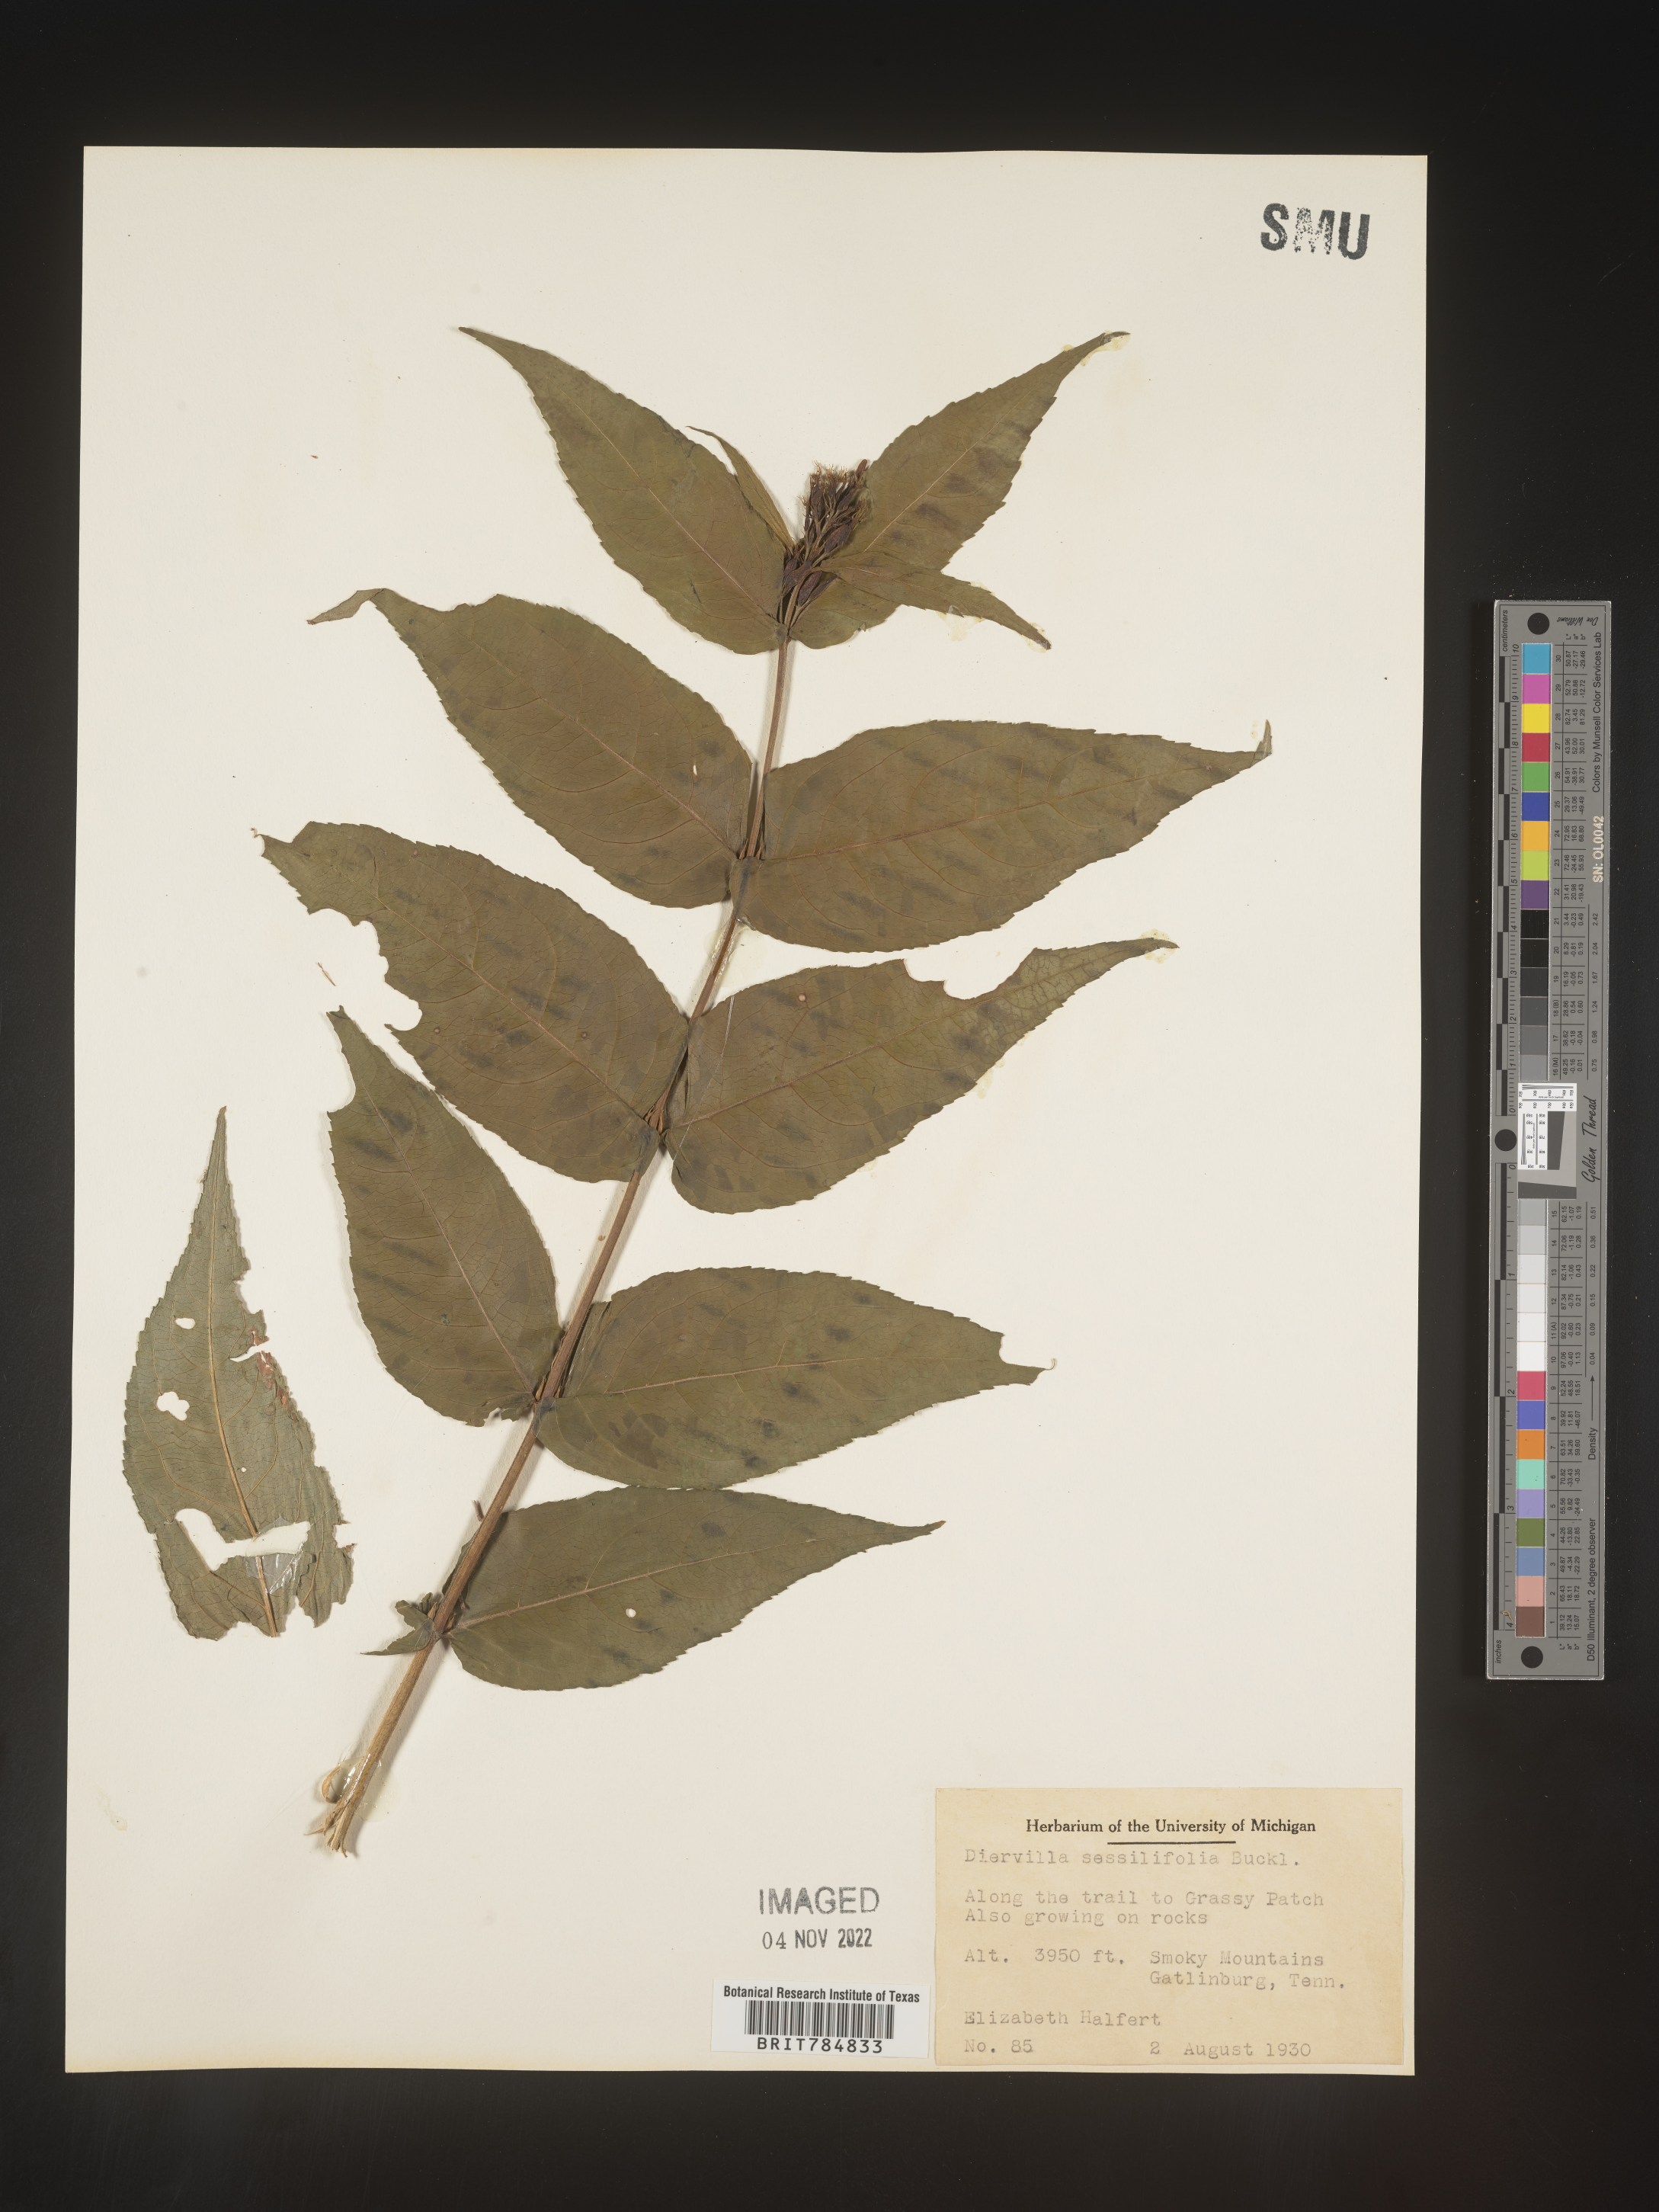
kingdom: Plantae
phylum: Tracheophyta
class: Magnoliopsida
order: Dipsacales
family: Caprifoliaceae
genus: Diervilla
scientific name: Diervilla
